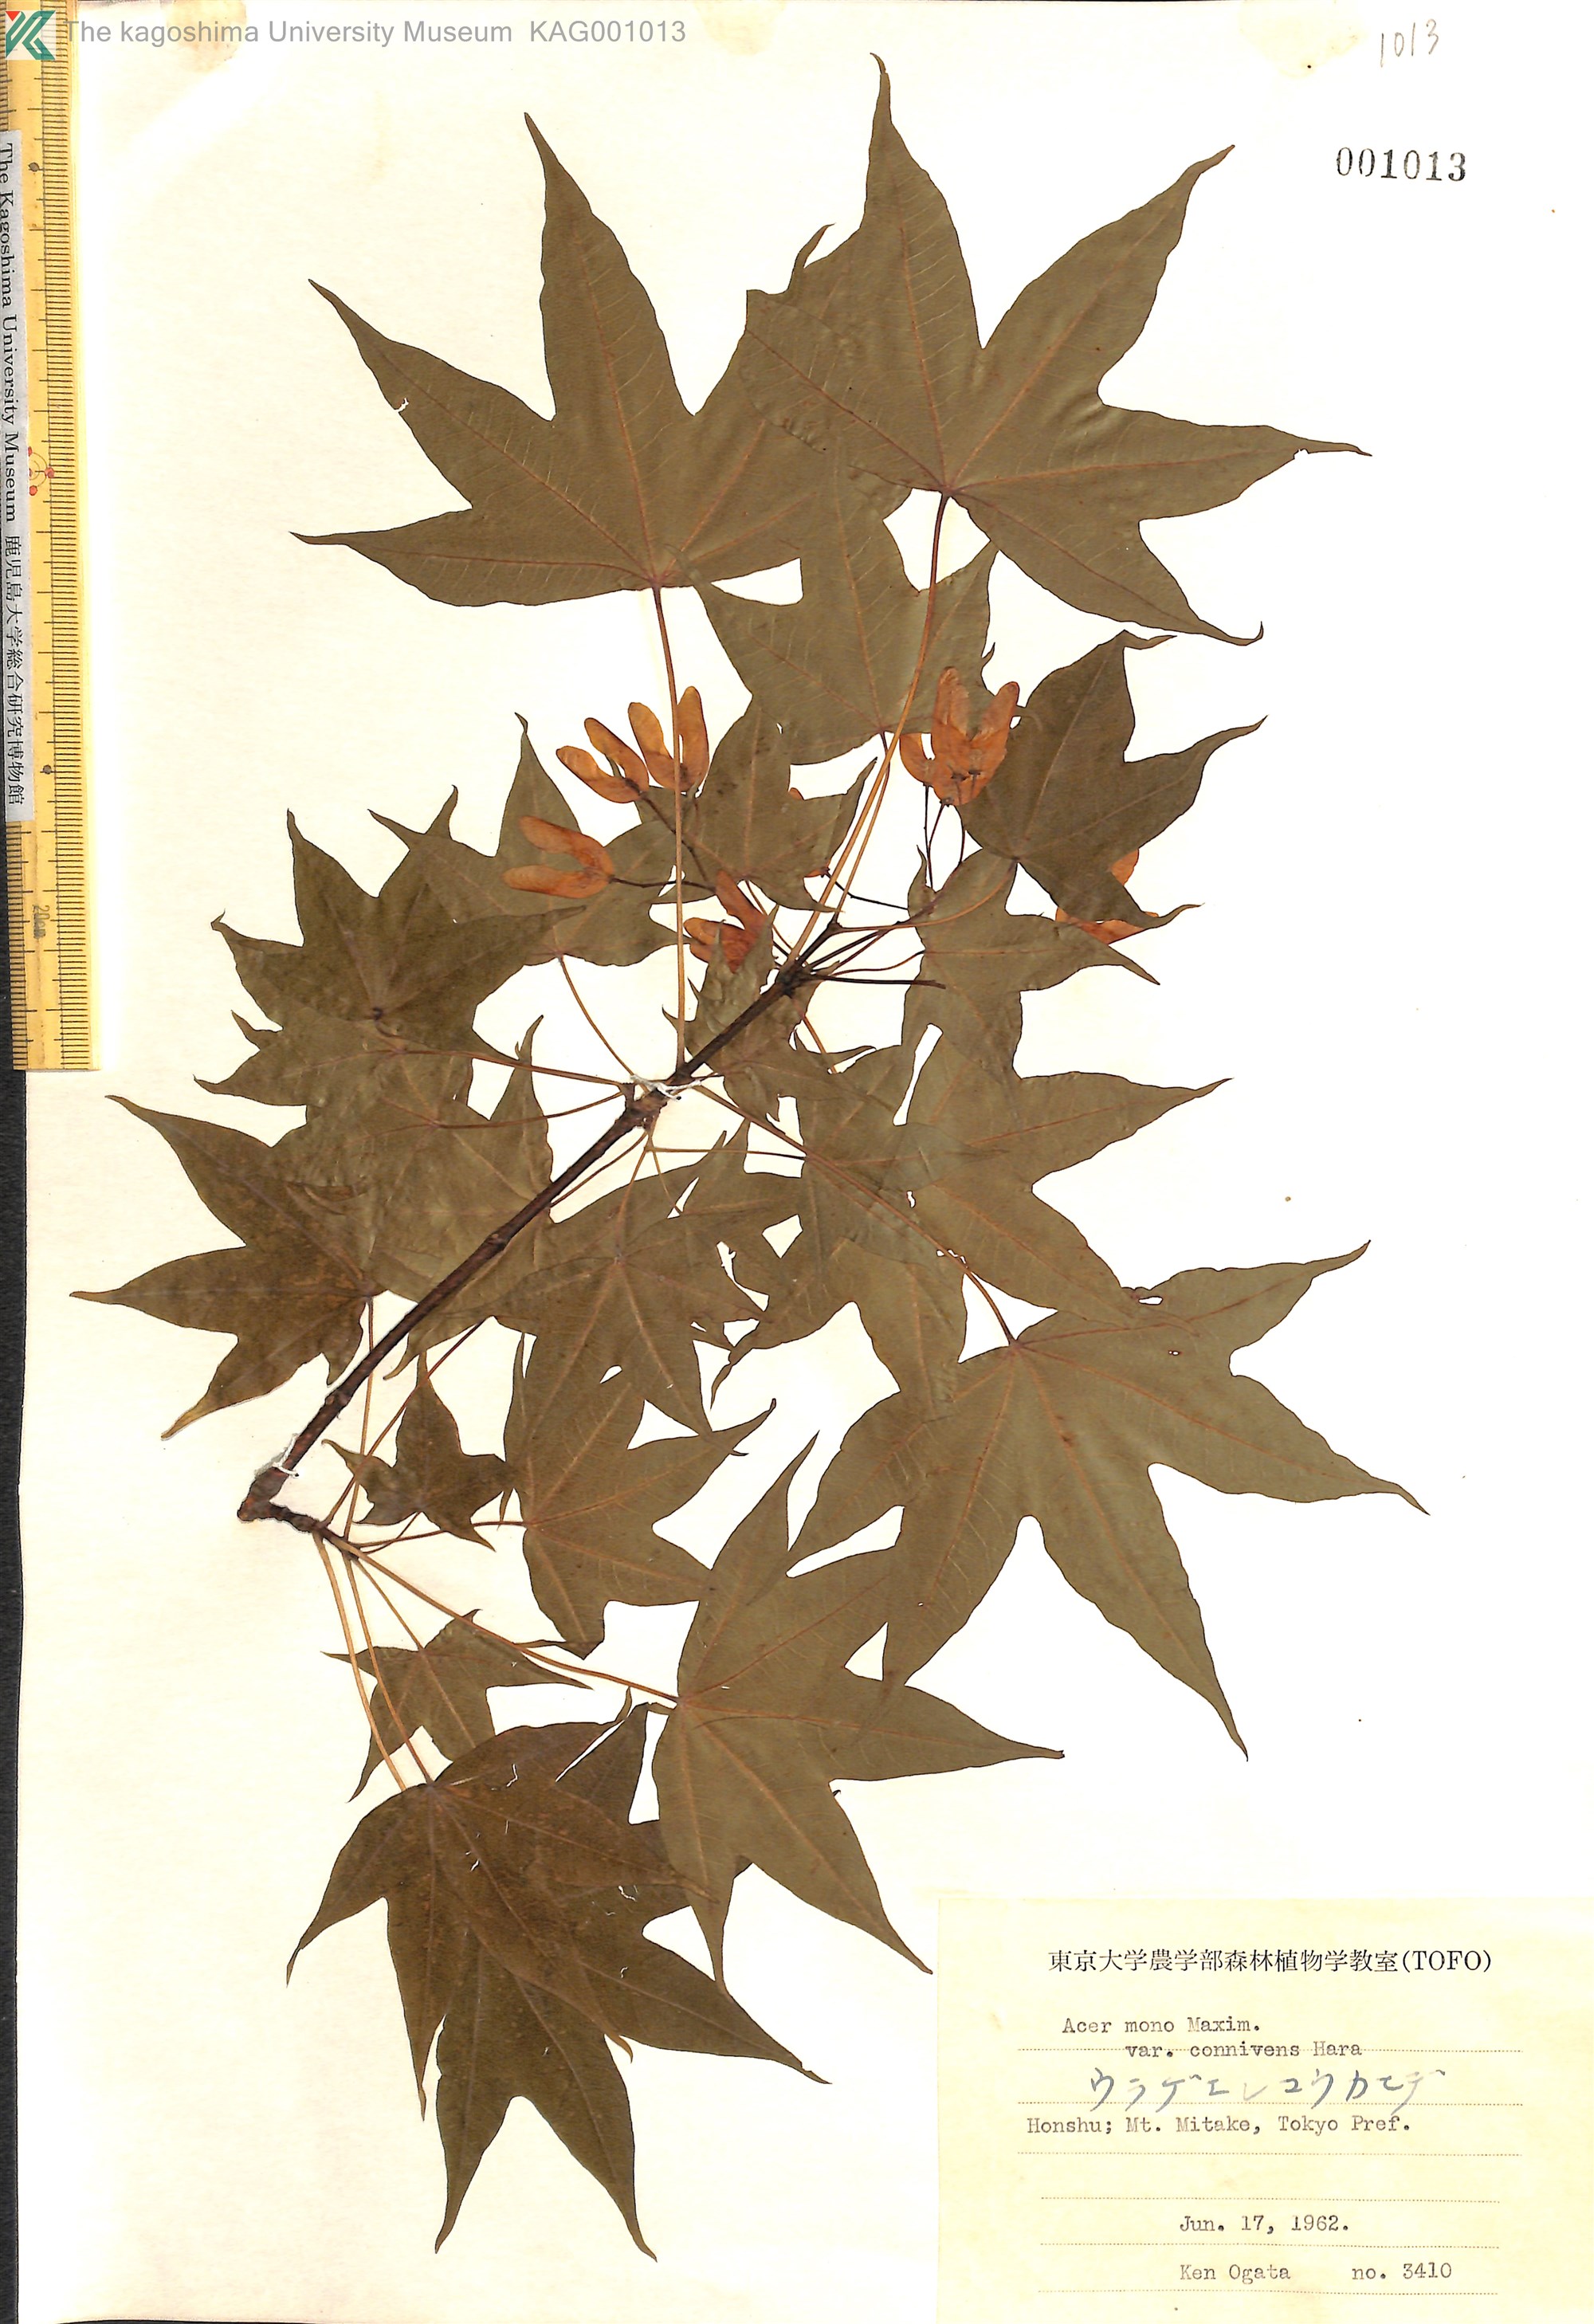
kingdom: Plantae
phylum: Tracheophyta
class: Magnoliopsida
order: Sapindales
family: Sapindaceae
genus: Acer
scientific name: Acer pictum
